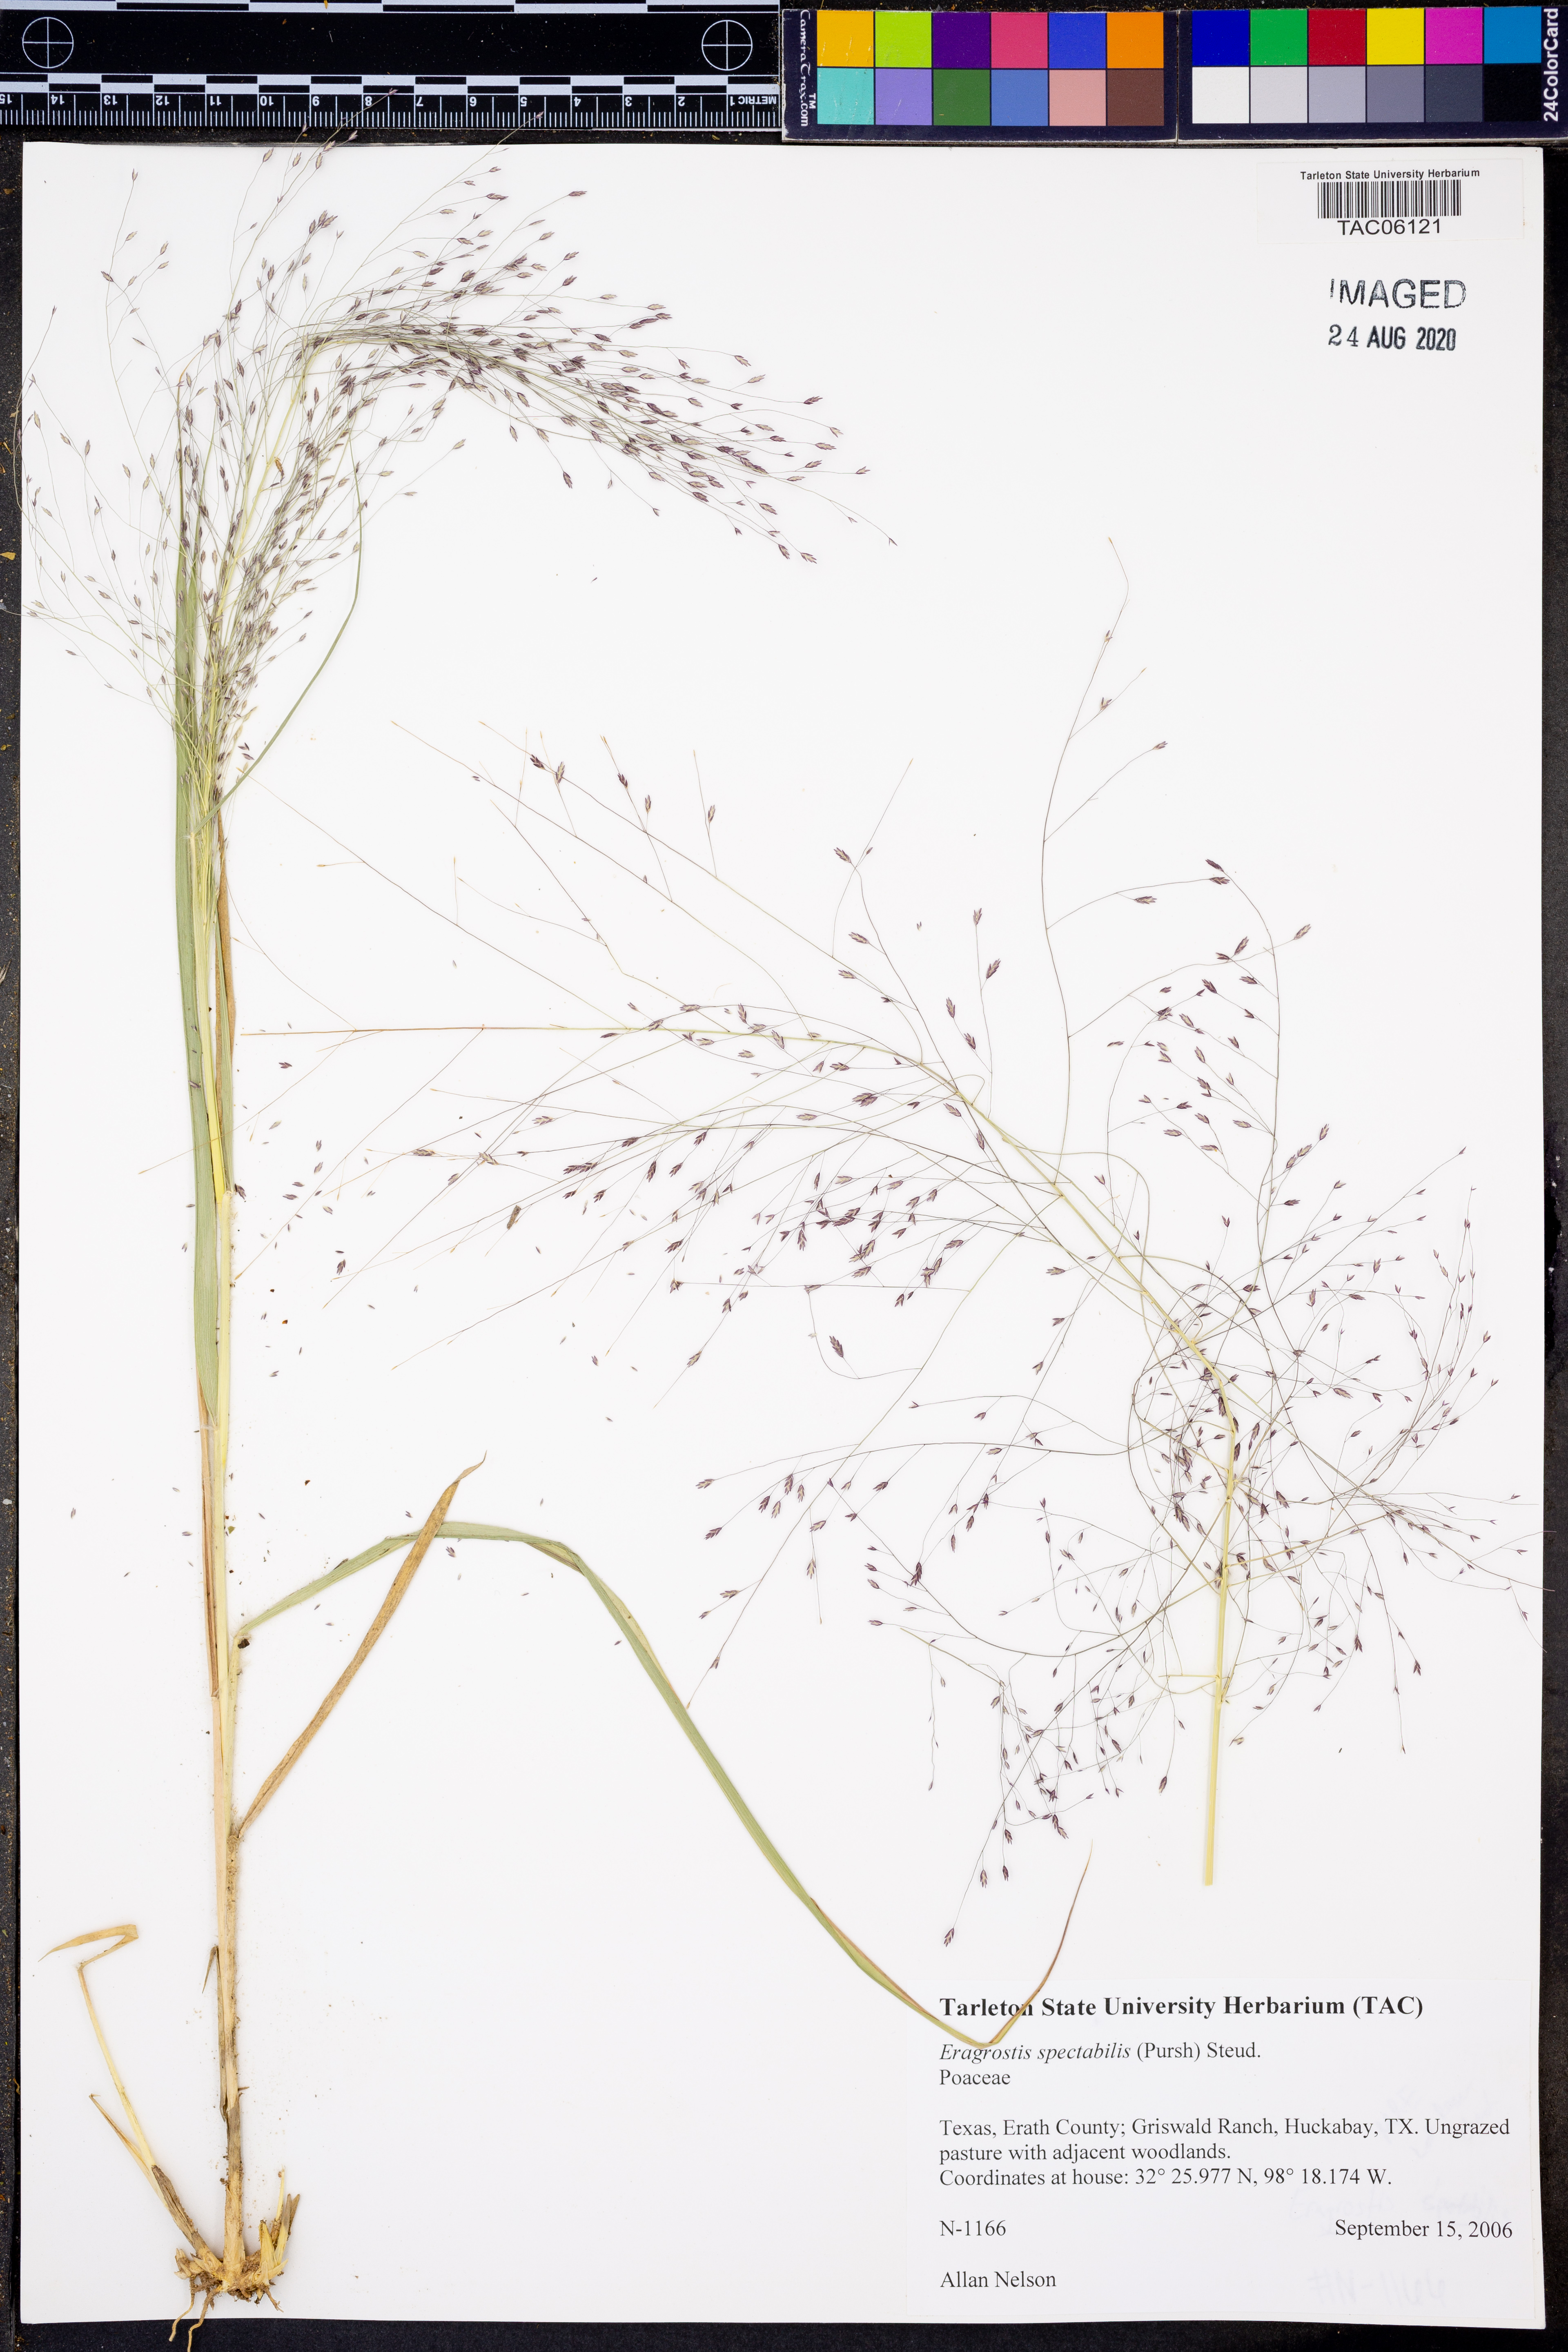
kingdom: Plantae
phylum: Tracheophyta
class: Liliopsida
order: Poales
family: Poaceae
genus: Eragrostis
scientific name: Eragrostis spectabilis
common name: Petticoat-climber
